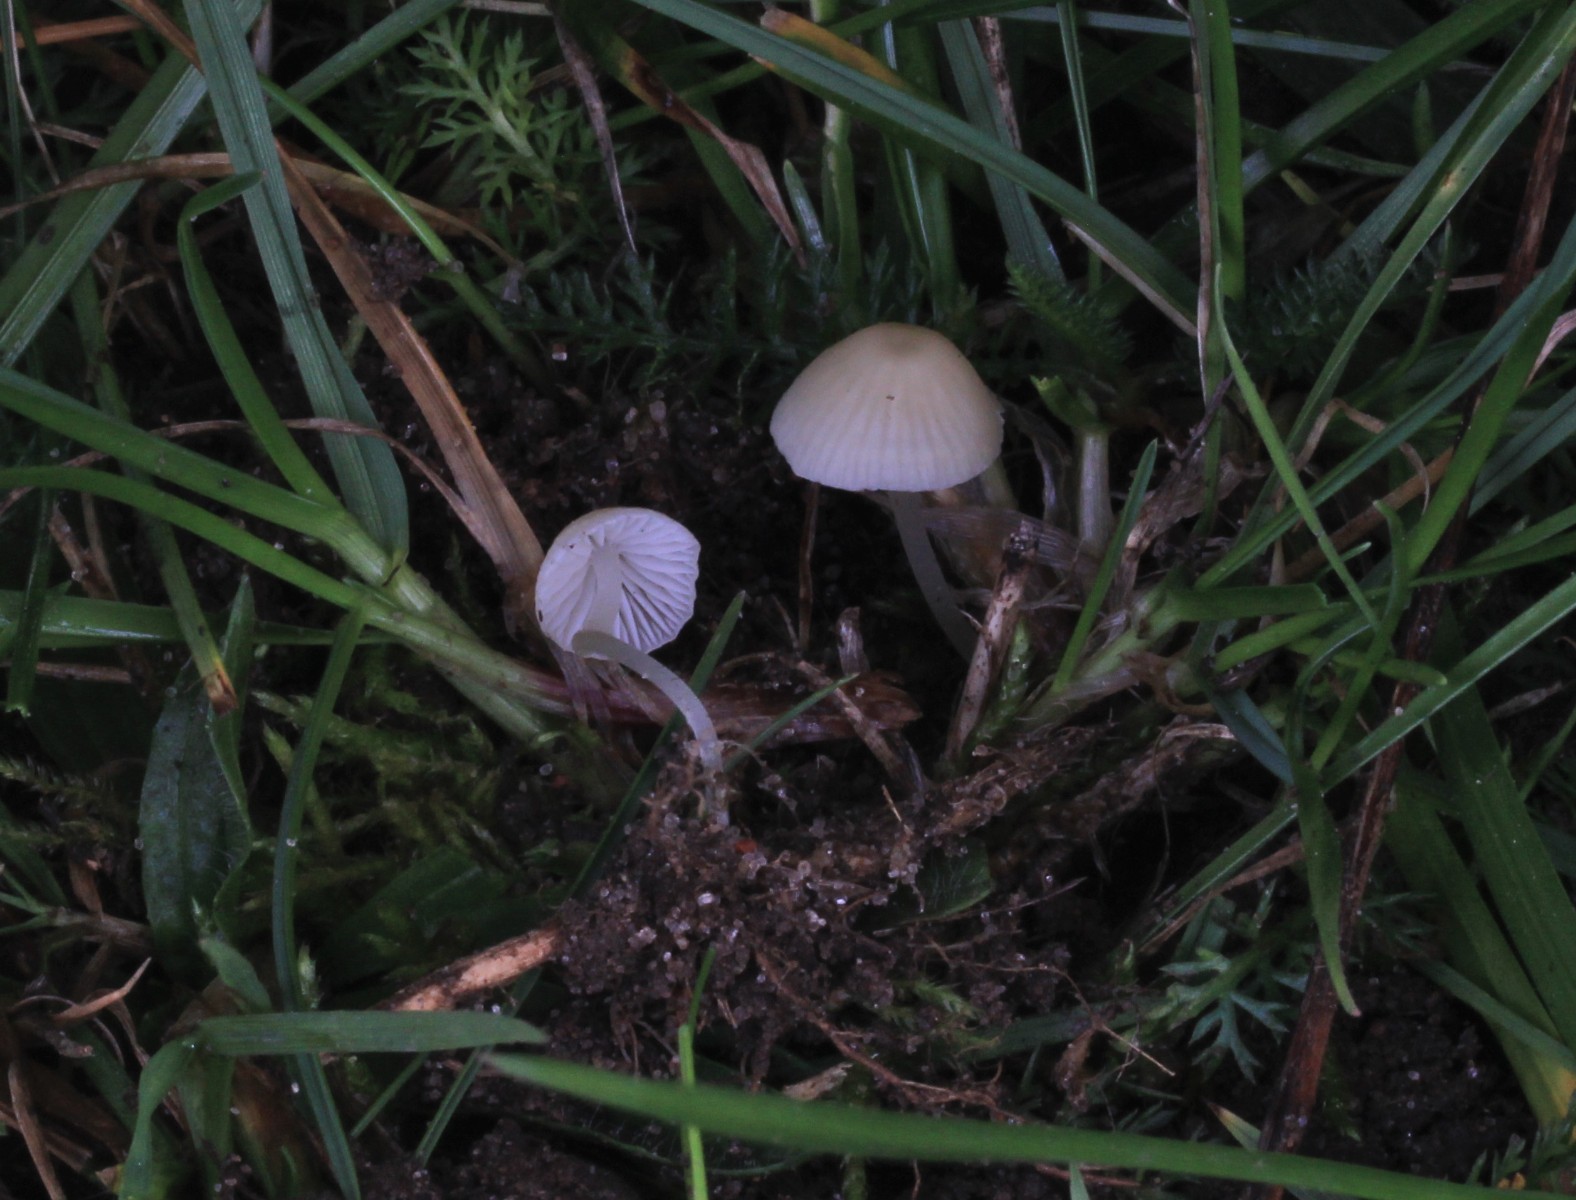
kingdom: Fungi
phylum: Basidiomycota
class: Agaricomycetes
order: Agaricales
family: Mycenaceae
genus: Atheniella
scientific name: Atheniella flavoalba
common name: gulhvid huesvamp
